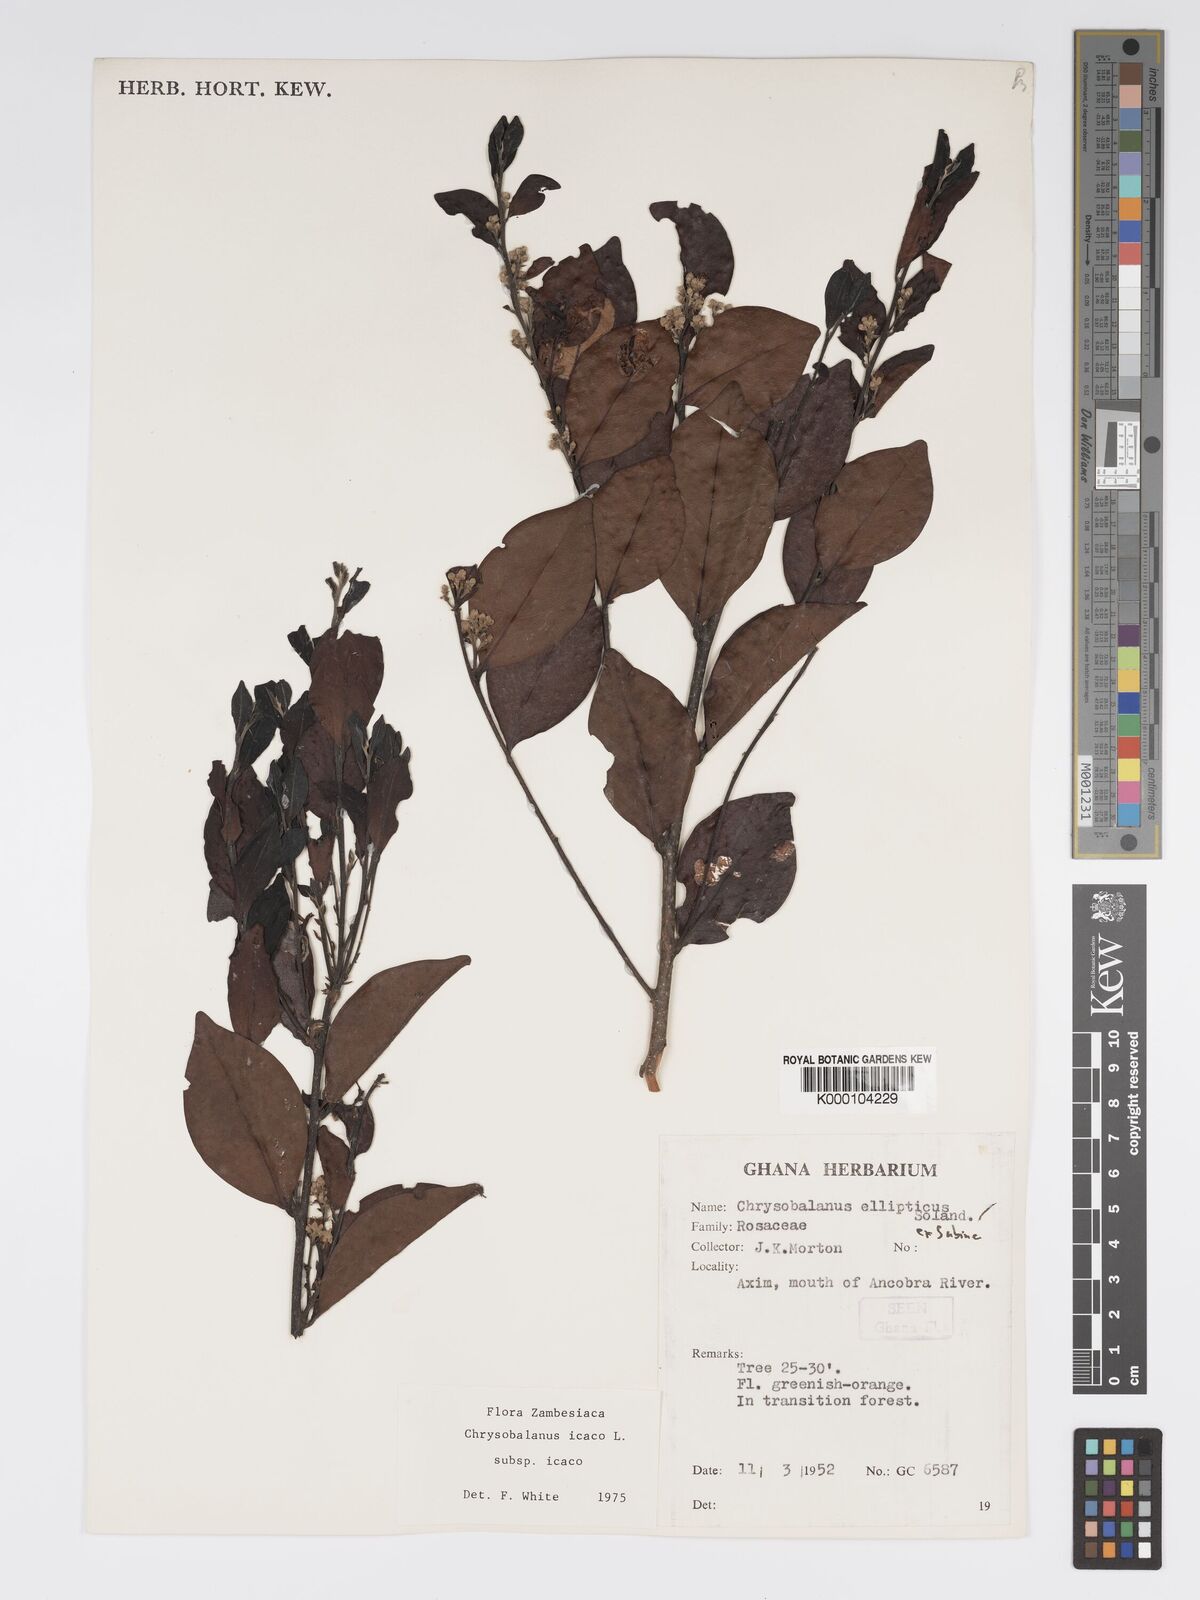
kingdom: Plantae
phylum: Tracheophyta
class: Magnoliopsida
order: Malpighiales
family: Chrysobalanaceae
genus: Chrysobalanus
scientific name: Chrysobalanus icaco
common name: Coco plum
